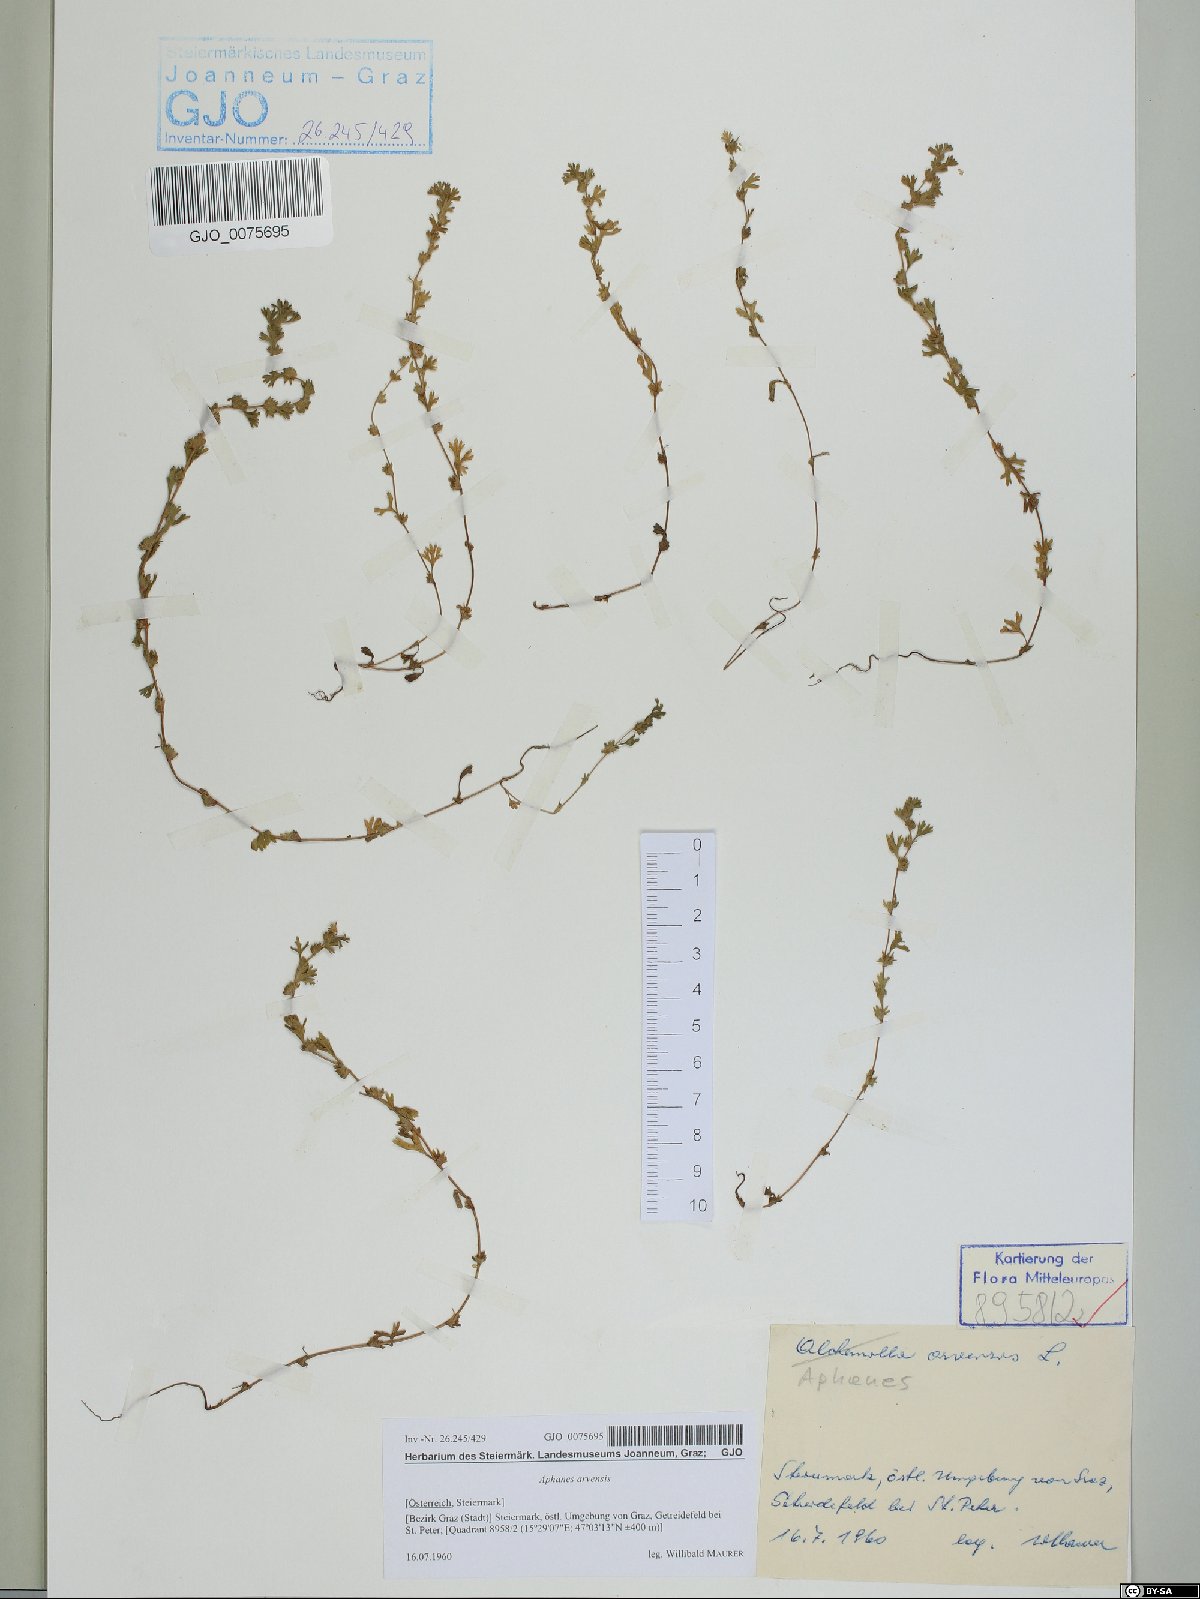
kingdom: Plantae
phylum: Tracheophyta
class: Magnoliopsida
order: Rosales
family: Rosaceae
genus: Aphanes
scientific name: Aphanes arvensis
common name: Parsley-piert
